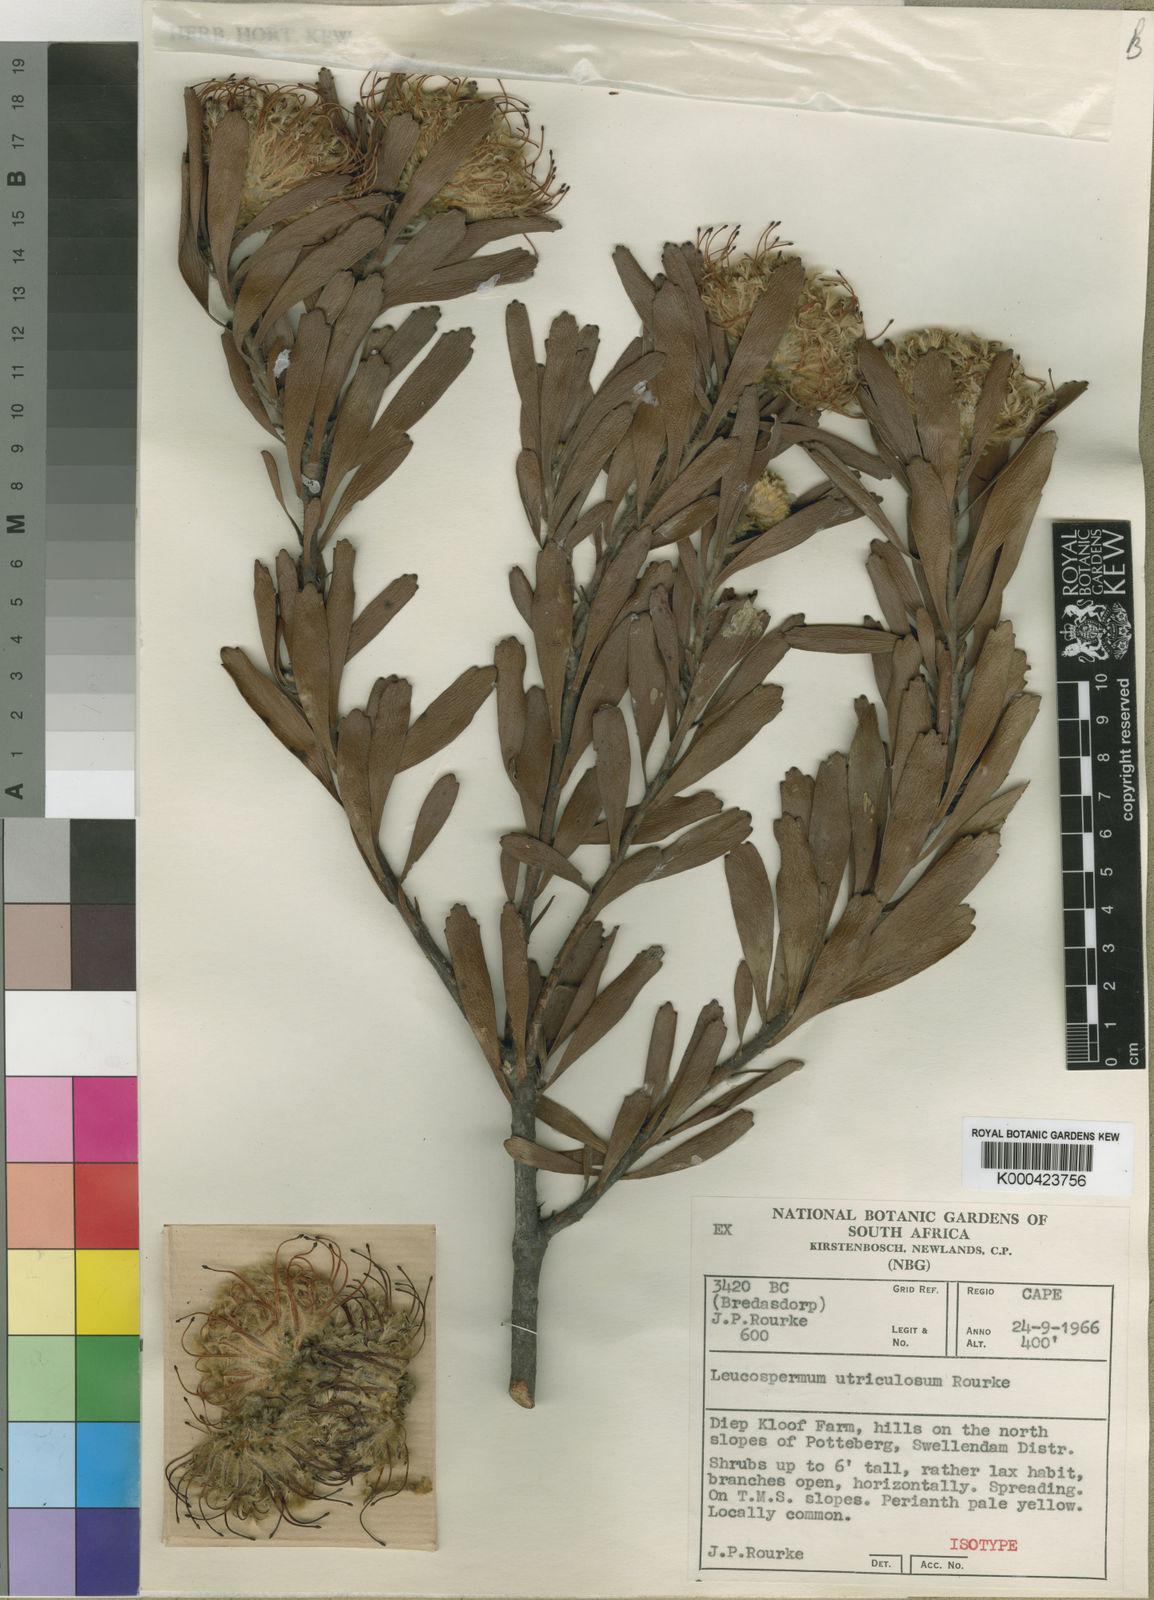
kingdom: Plantae
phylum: Tracheophyta
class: Magnoliopsida
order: Proteales
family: Proteaceae
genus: Leucospermum
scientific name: Leucospermum utriculosum
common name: Breede river pincushion
